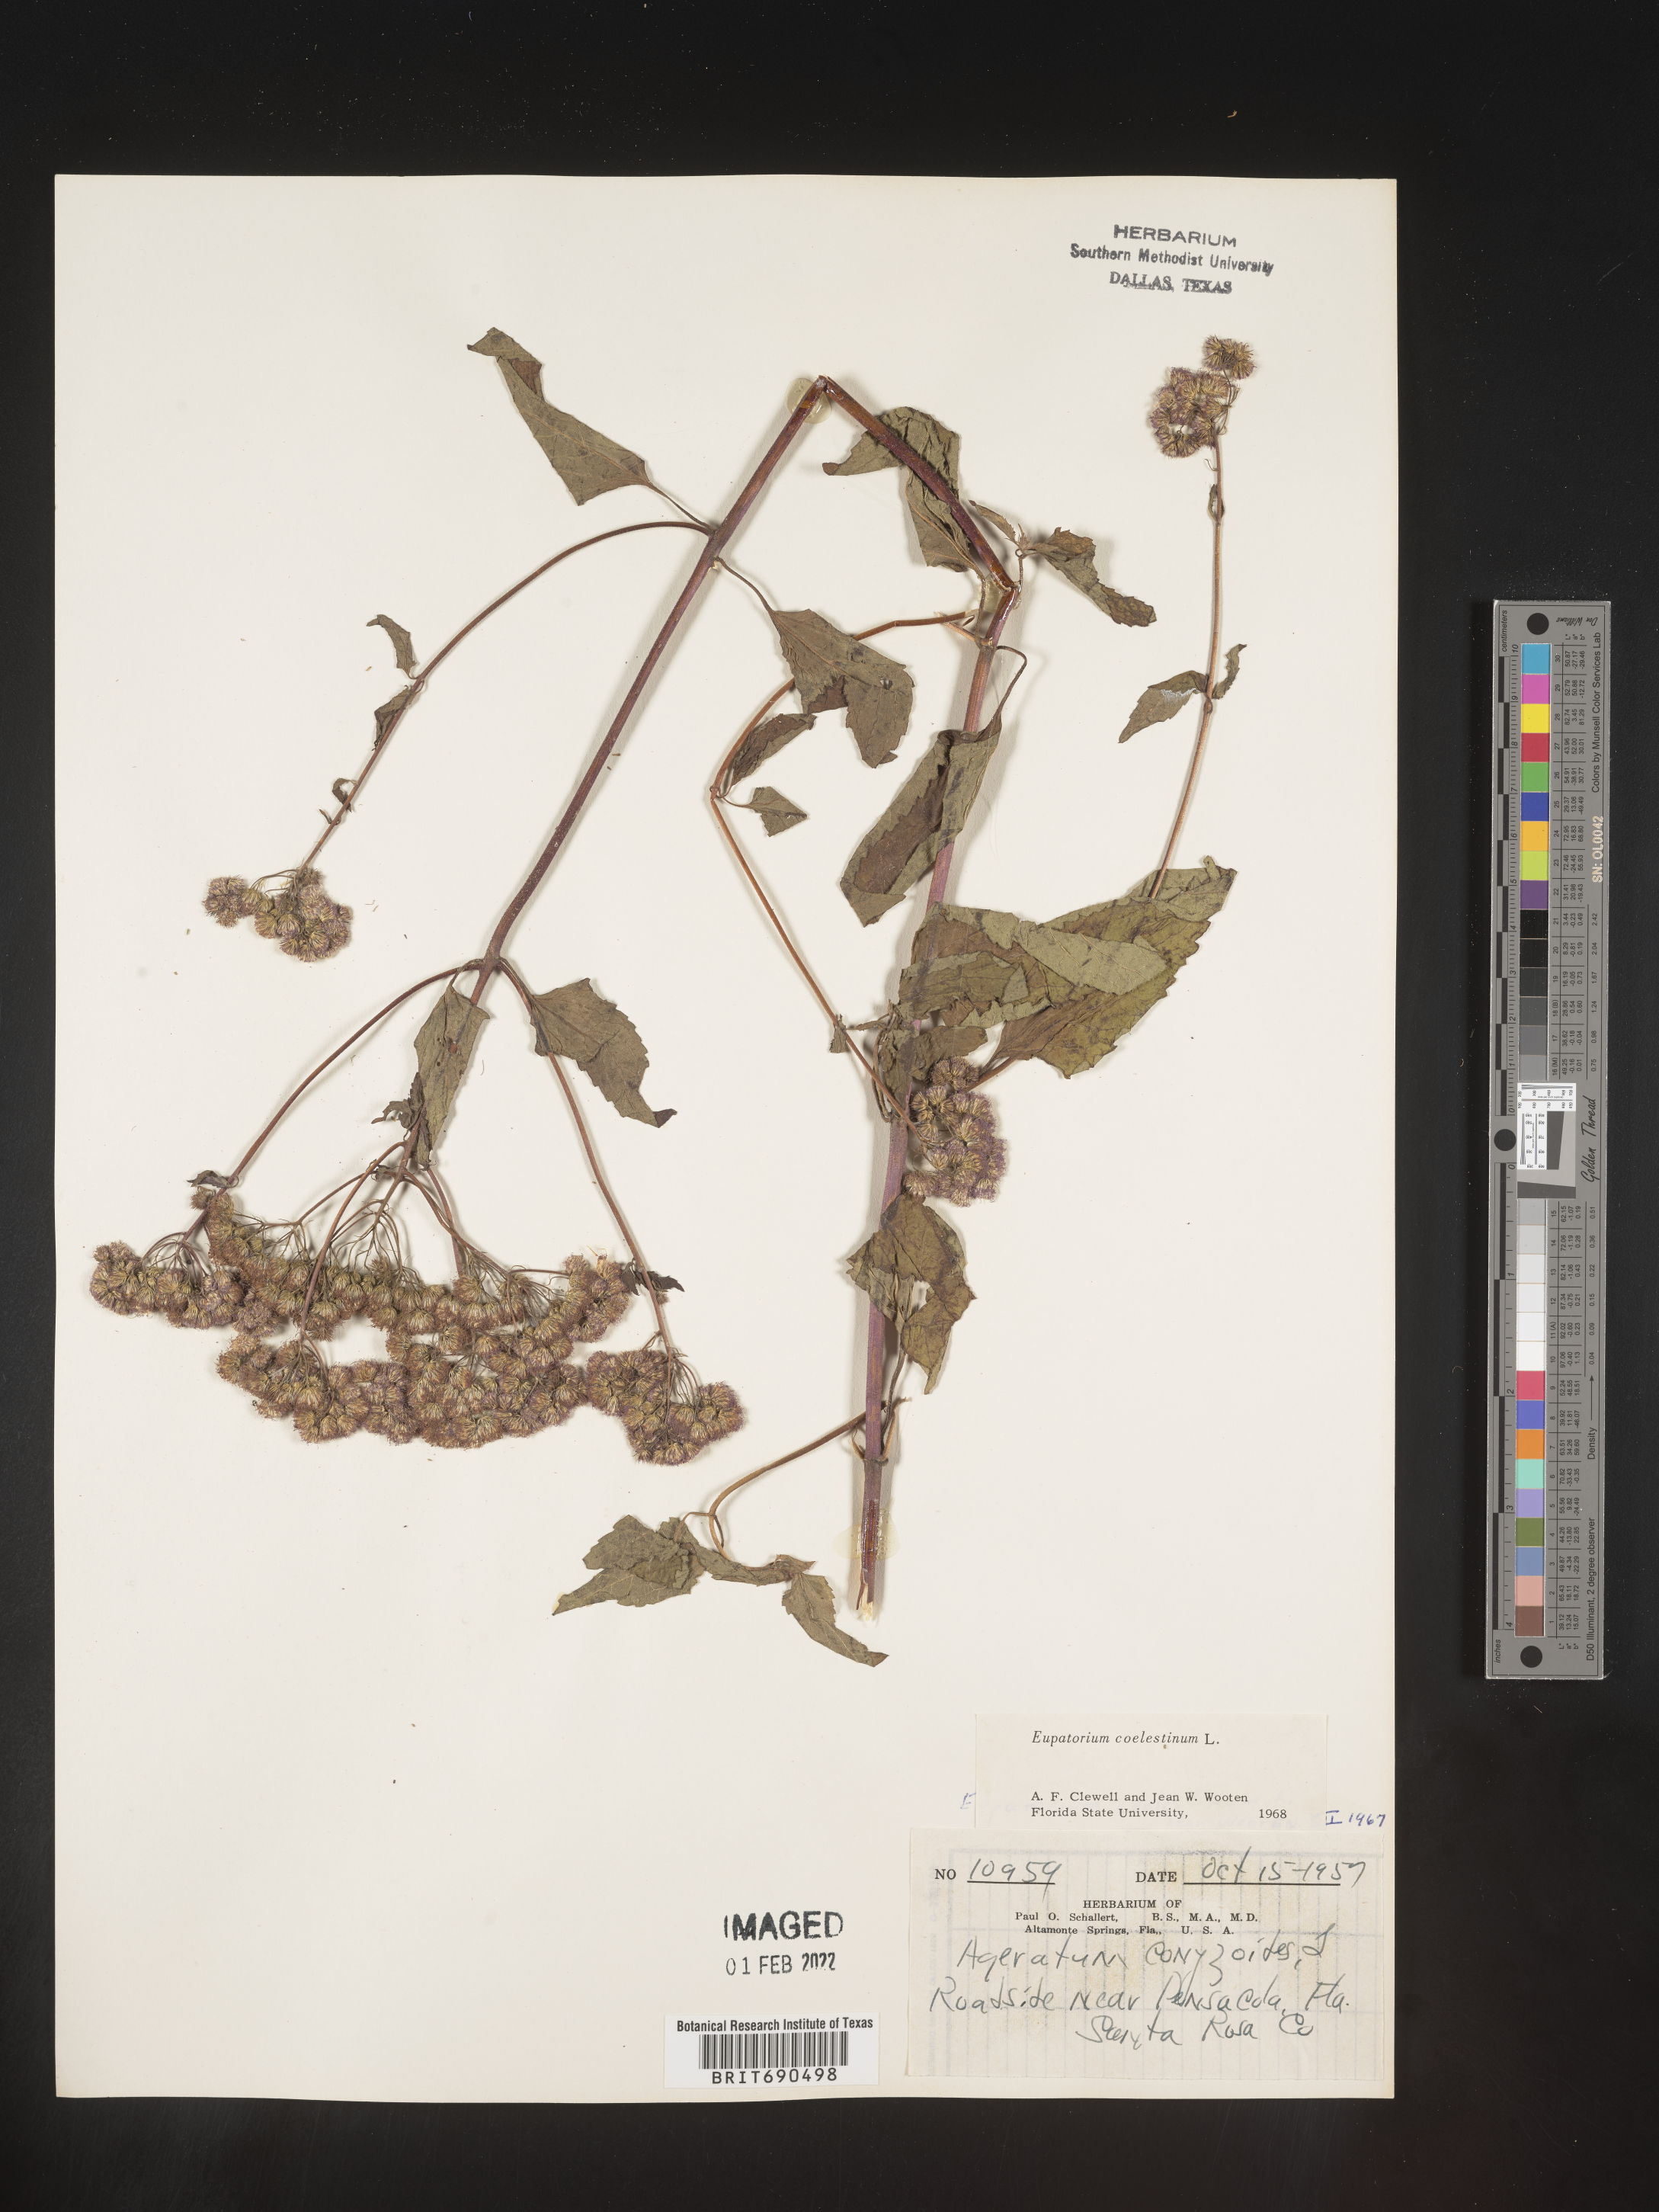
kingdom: Plantae
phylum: Tracheophyta
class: Magnoliopsida
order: Asterales
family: Asteraceae
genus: Conoclinium
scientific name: Conoclinium coelestinum
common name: Blue mistflower
